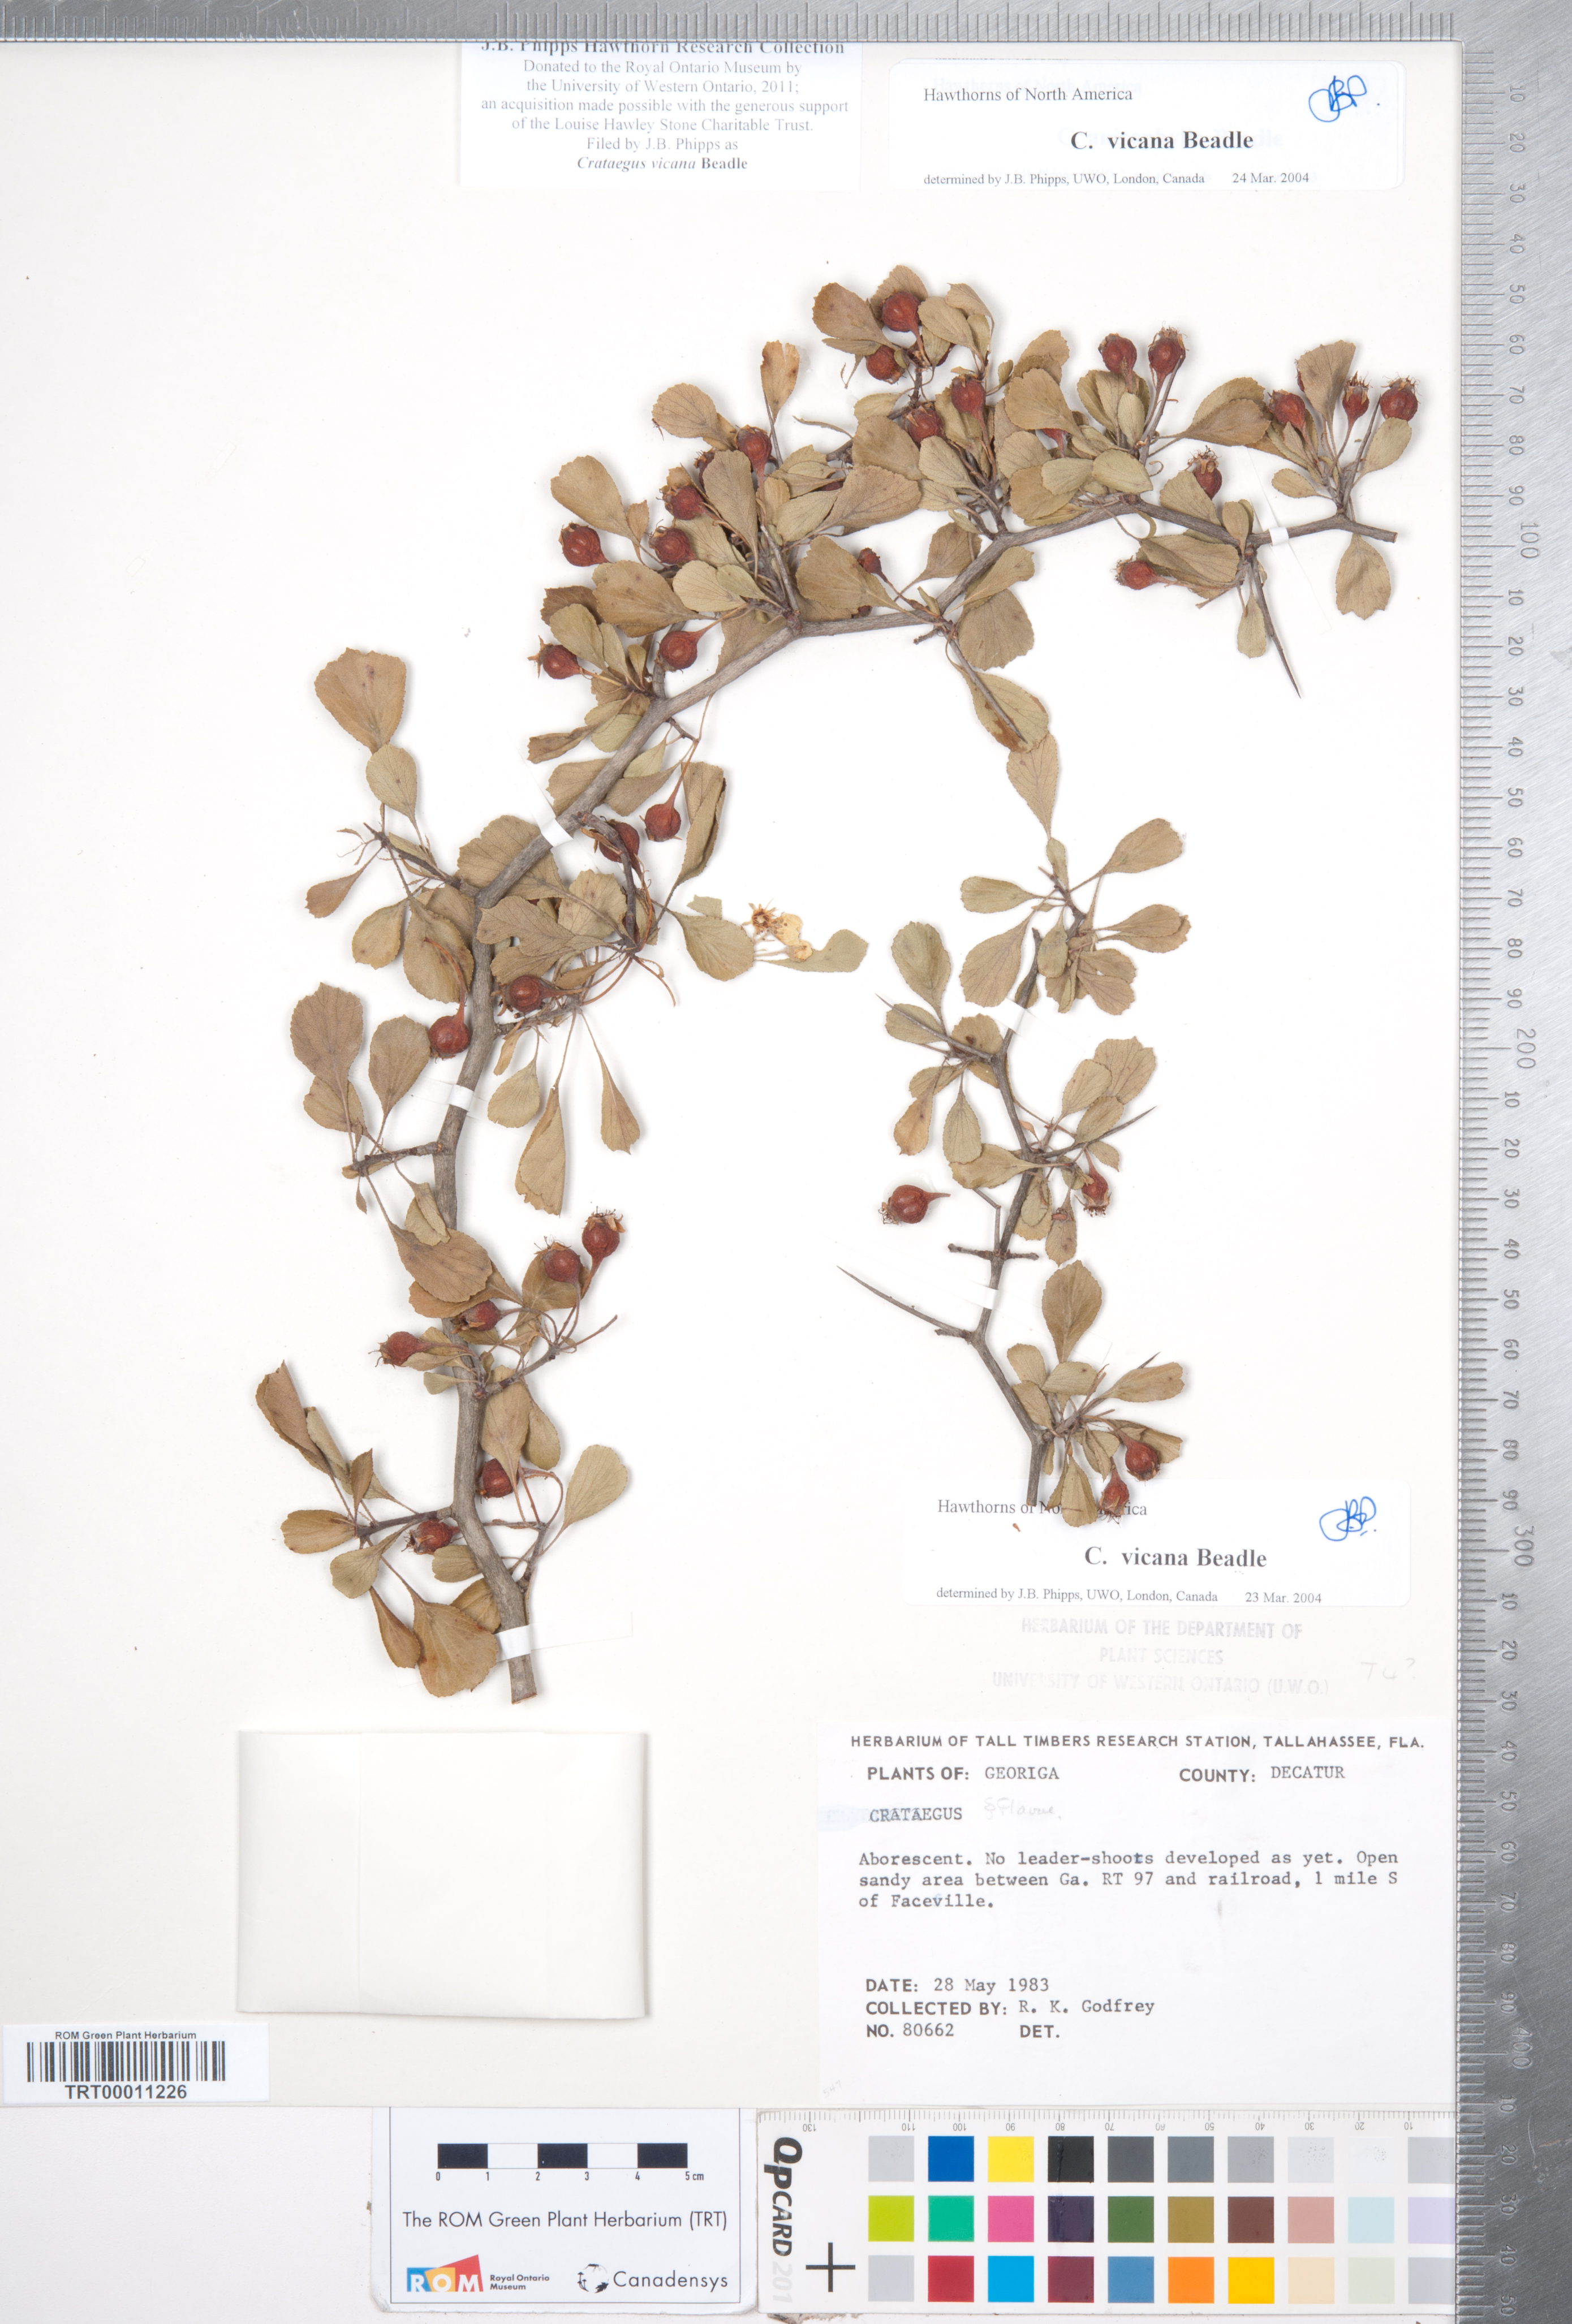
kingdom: Plantae
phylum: Tracheophyta
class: Magnoliopsida
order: Rosales
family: Rosaceae
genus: Crataegus
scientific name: Crataegus lassa
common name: Florida hawthorn
